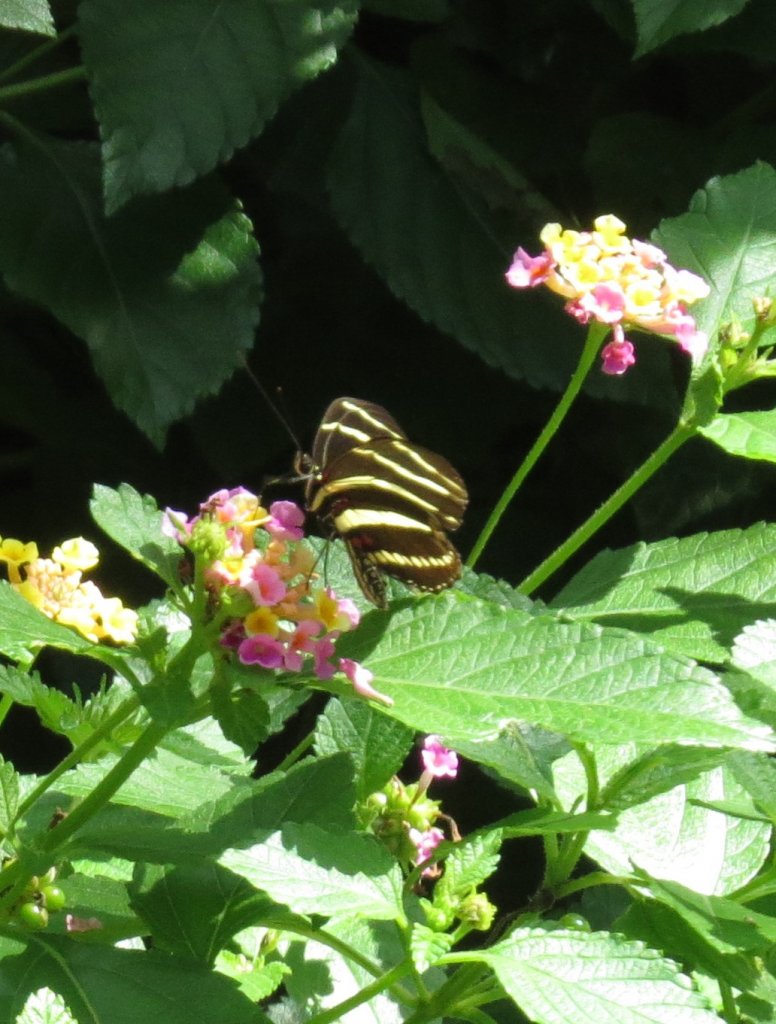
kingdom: Animalia
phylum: Arthropoda
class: Insecta
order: Lepidoptera
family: Nymphalidae
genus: Heliconius
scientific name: Heliconius charithonia
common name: Zebra Longwing
